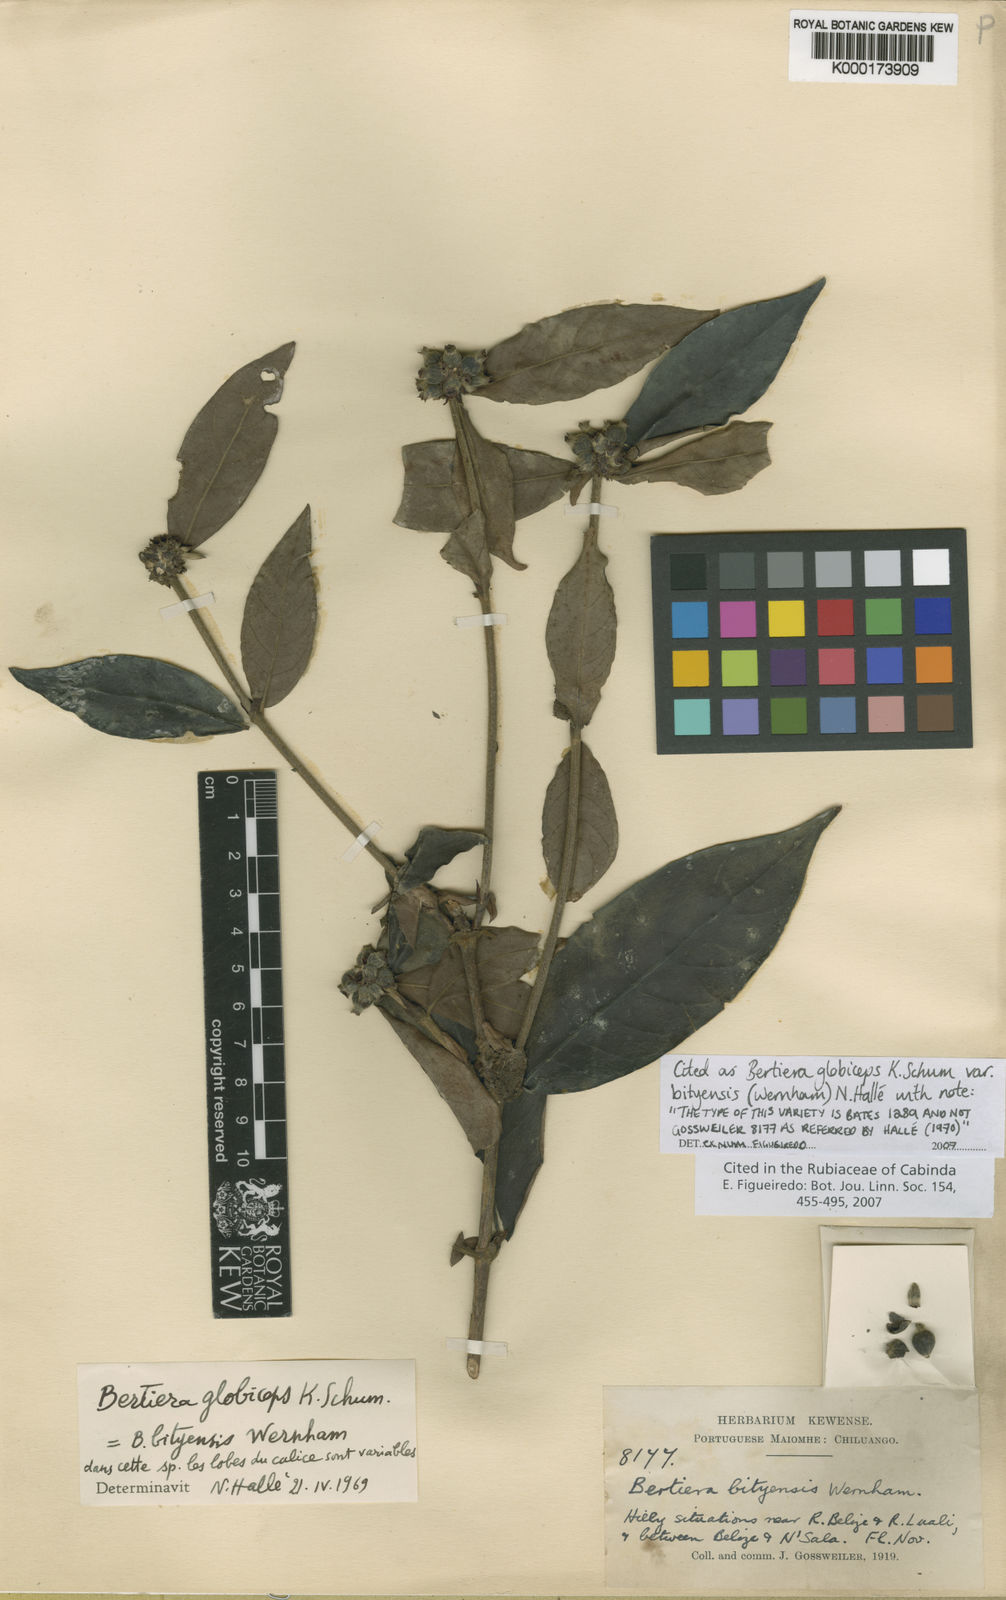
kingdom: Plantae
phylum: Tracheophyta
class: Magnoliopsida
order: Gentianales
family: Rubiaceae
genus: Bertiera
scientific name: Bertiera globiceps
